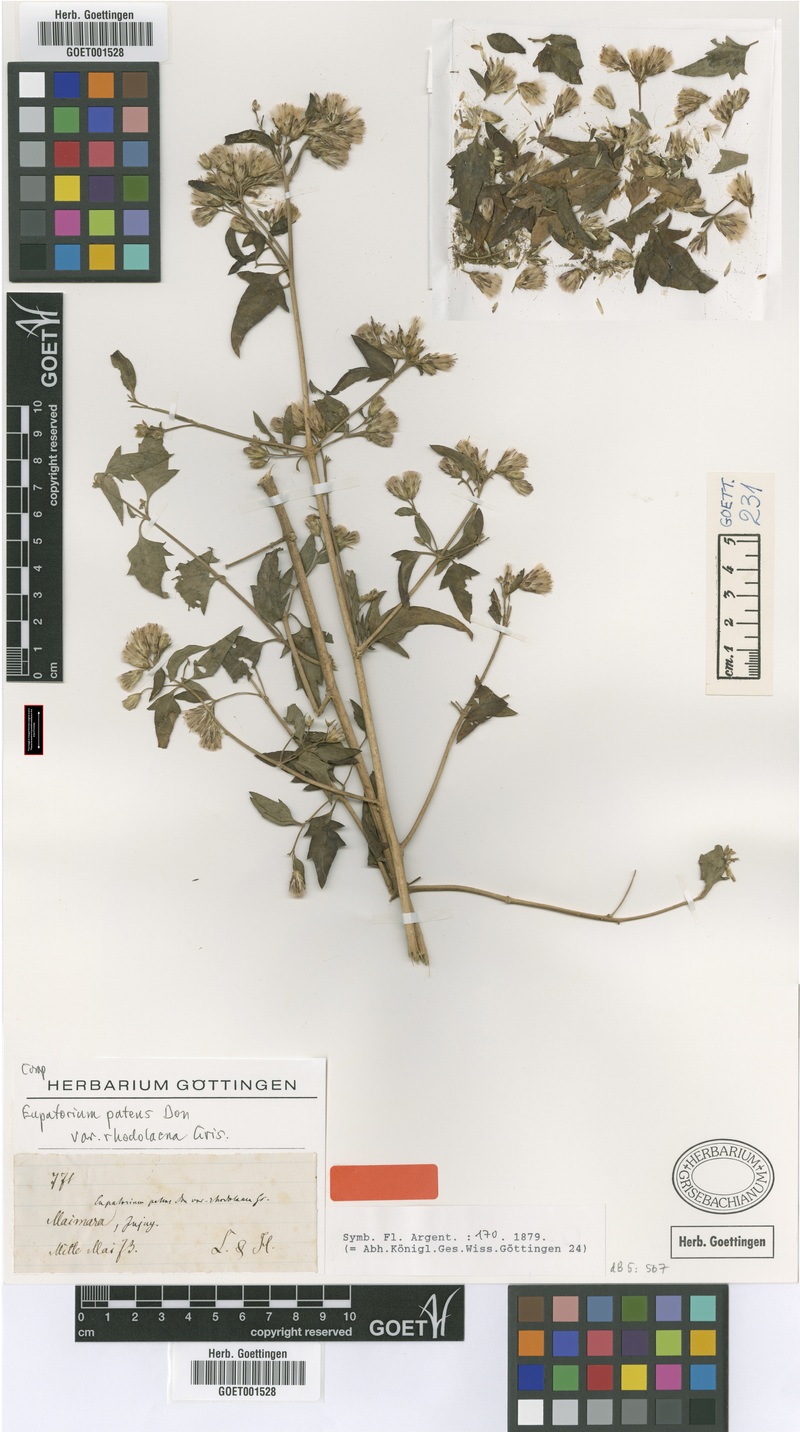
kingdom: Plantae
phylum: Tracheophyta
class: Magnoliopsida
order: Asterales
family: Asteraceae
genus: Austrobrickellia
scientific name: Austrobrickellia patens
